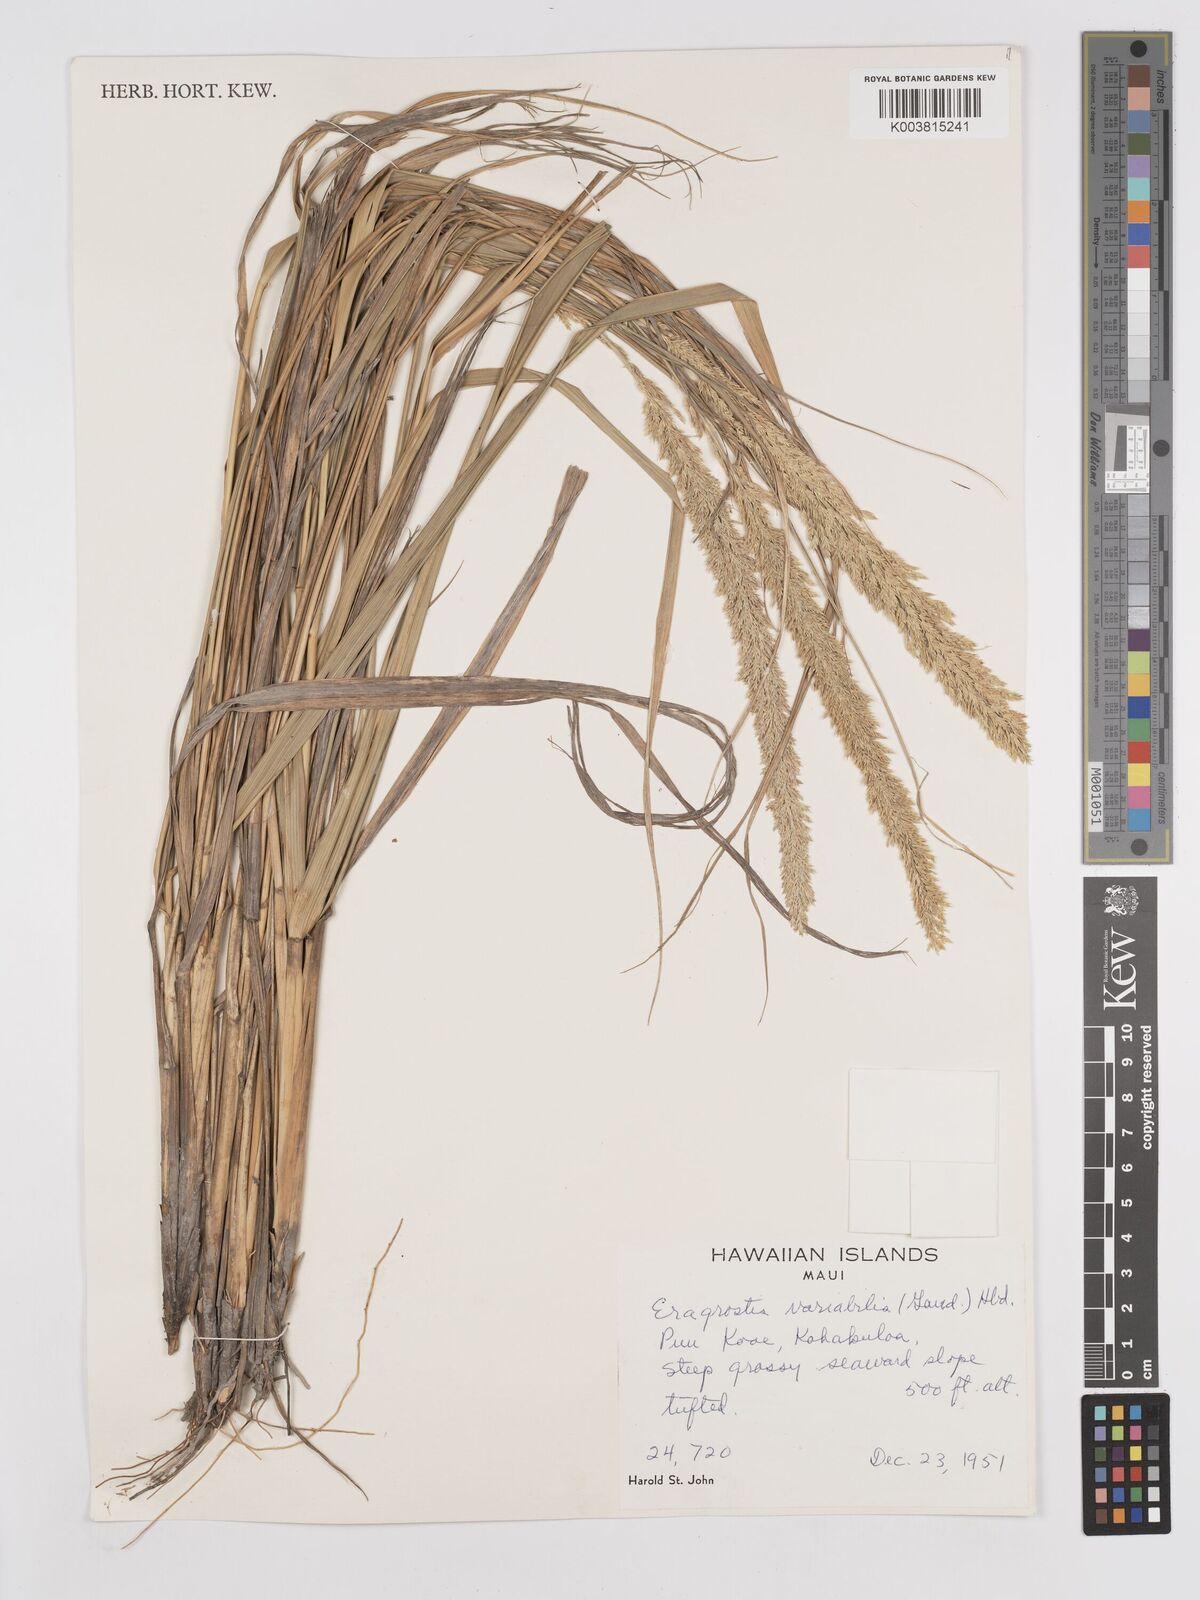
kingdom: Plantae
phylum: Tracheophyta
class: Liliopsida
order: Poales
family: Poaceae
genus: Eragrostis
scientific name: Eragrostis variabilis
